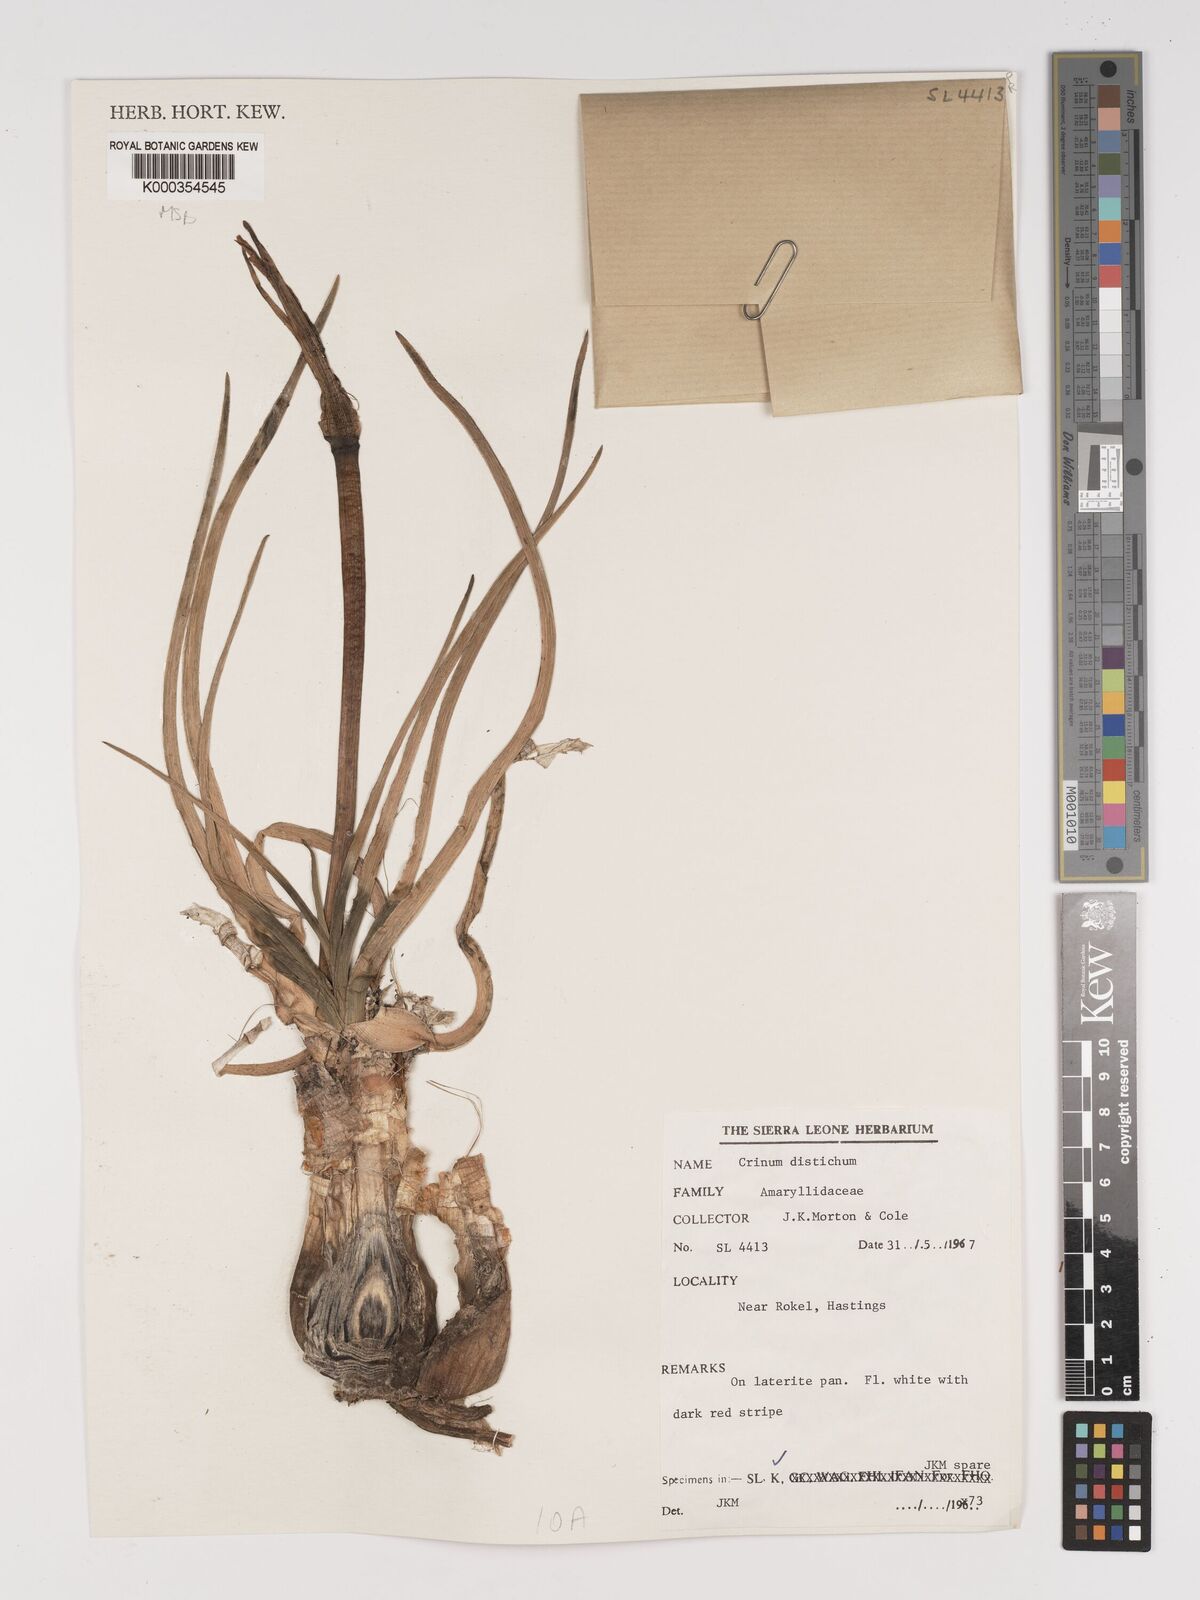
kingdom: Plantae
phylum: Tracheophyta
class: Liliopsida
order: Asparagales
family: Amaryllidaceae
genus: Crinum
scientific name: Crinum zeylanicum
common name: Ceylon swamplily
